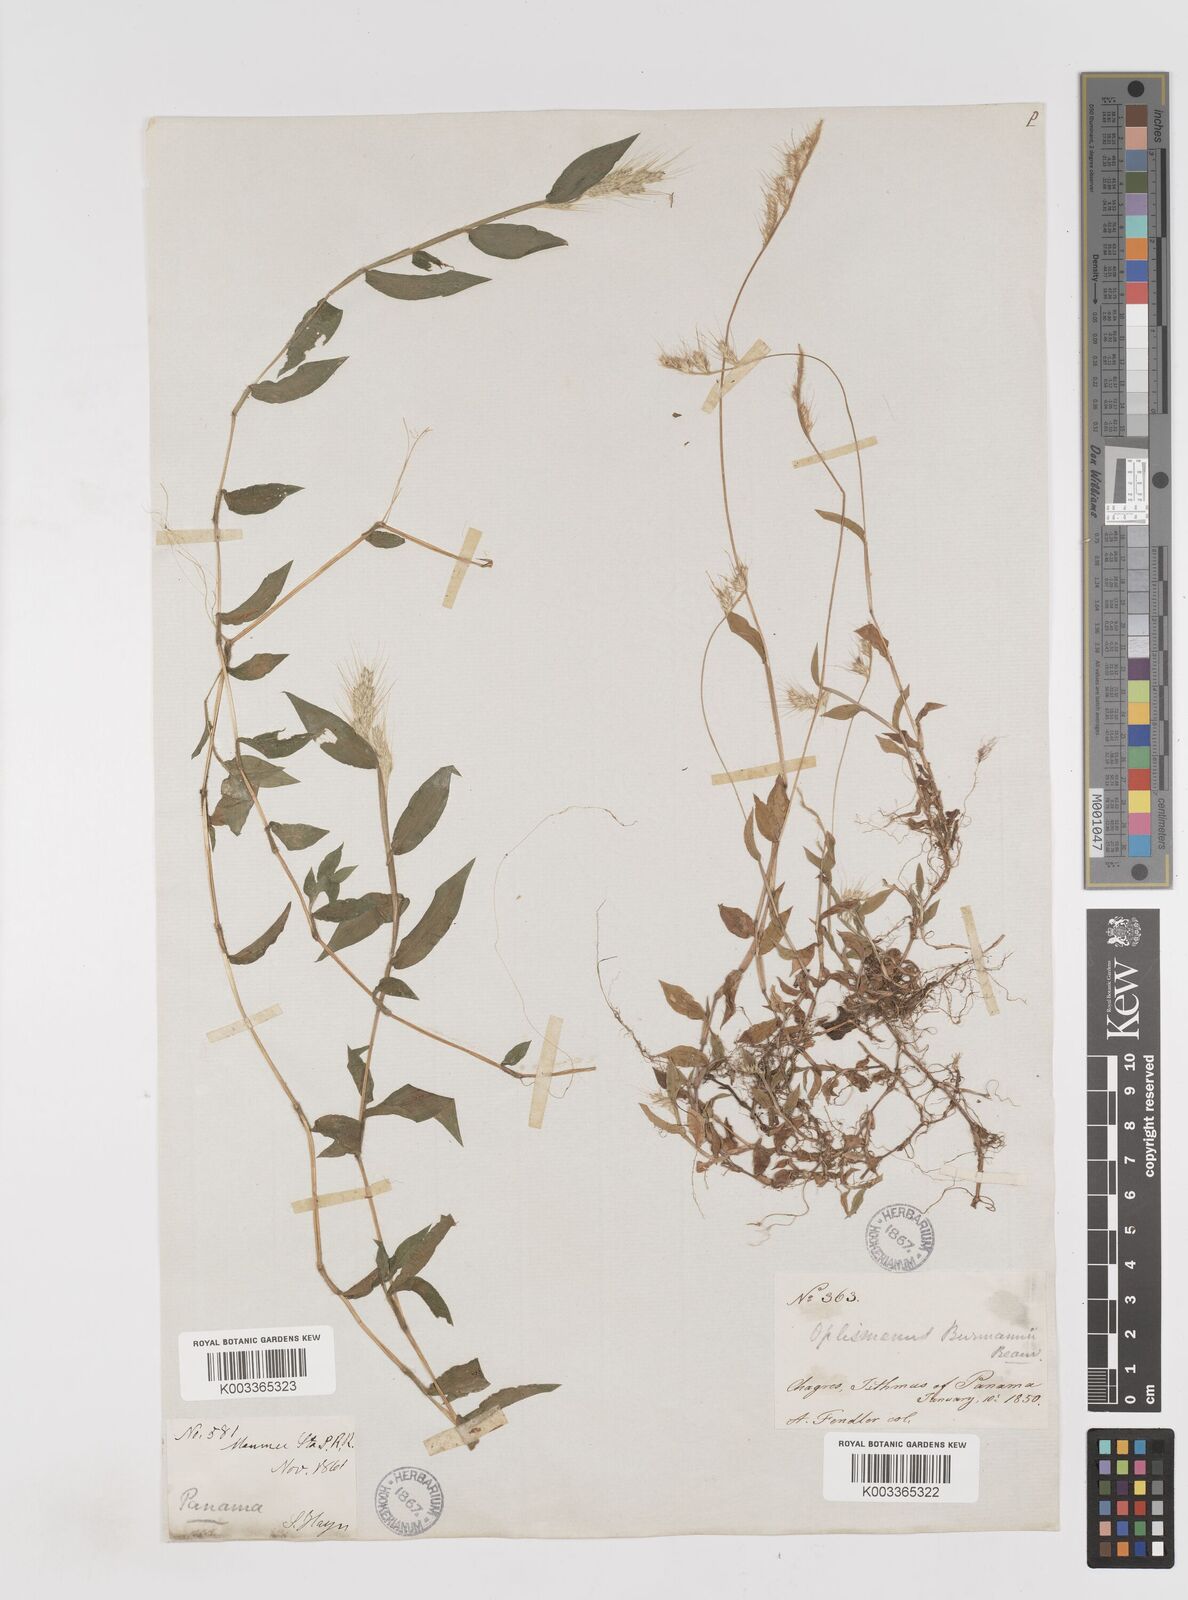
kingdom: Plantae
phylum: Tracheophyta
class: Liliopsida
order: Poales
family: Poaceae
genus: Oplismenus
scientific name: Oplismenus burmanni
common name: Burmann's basketgrass
